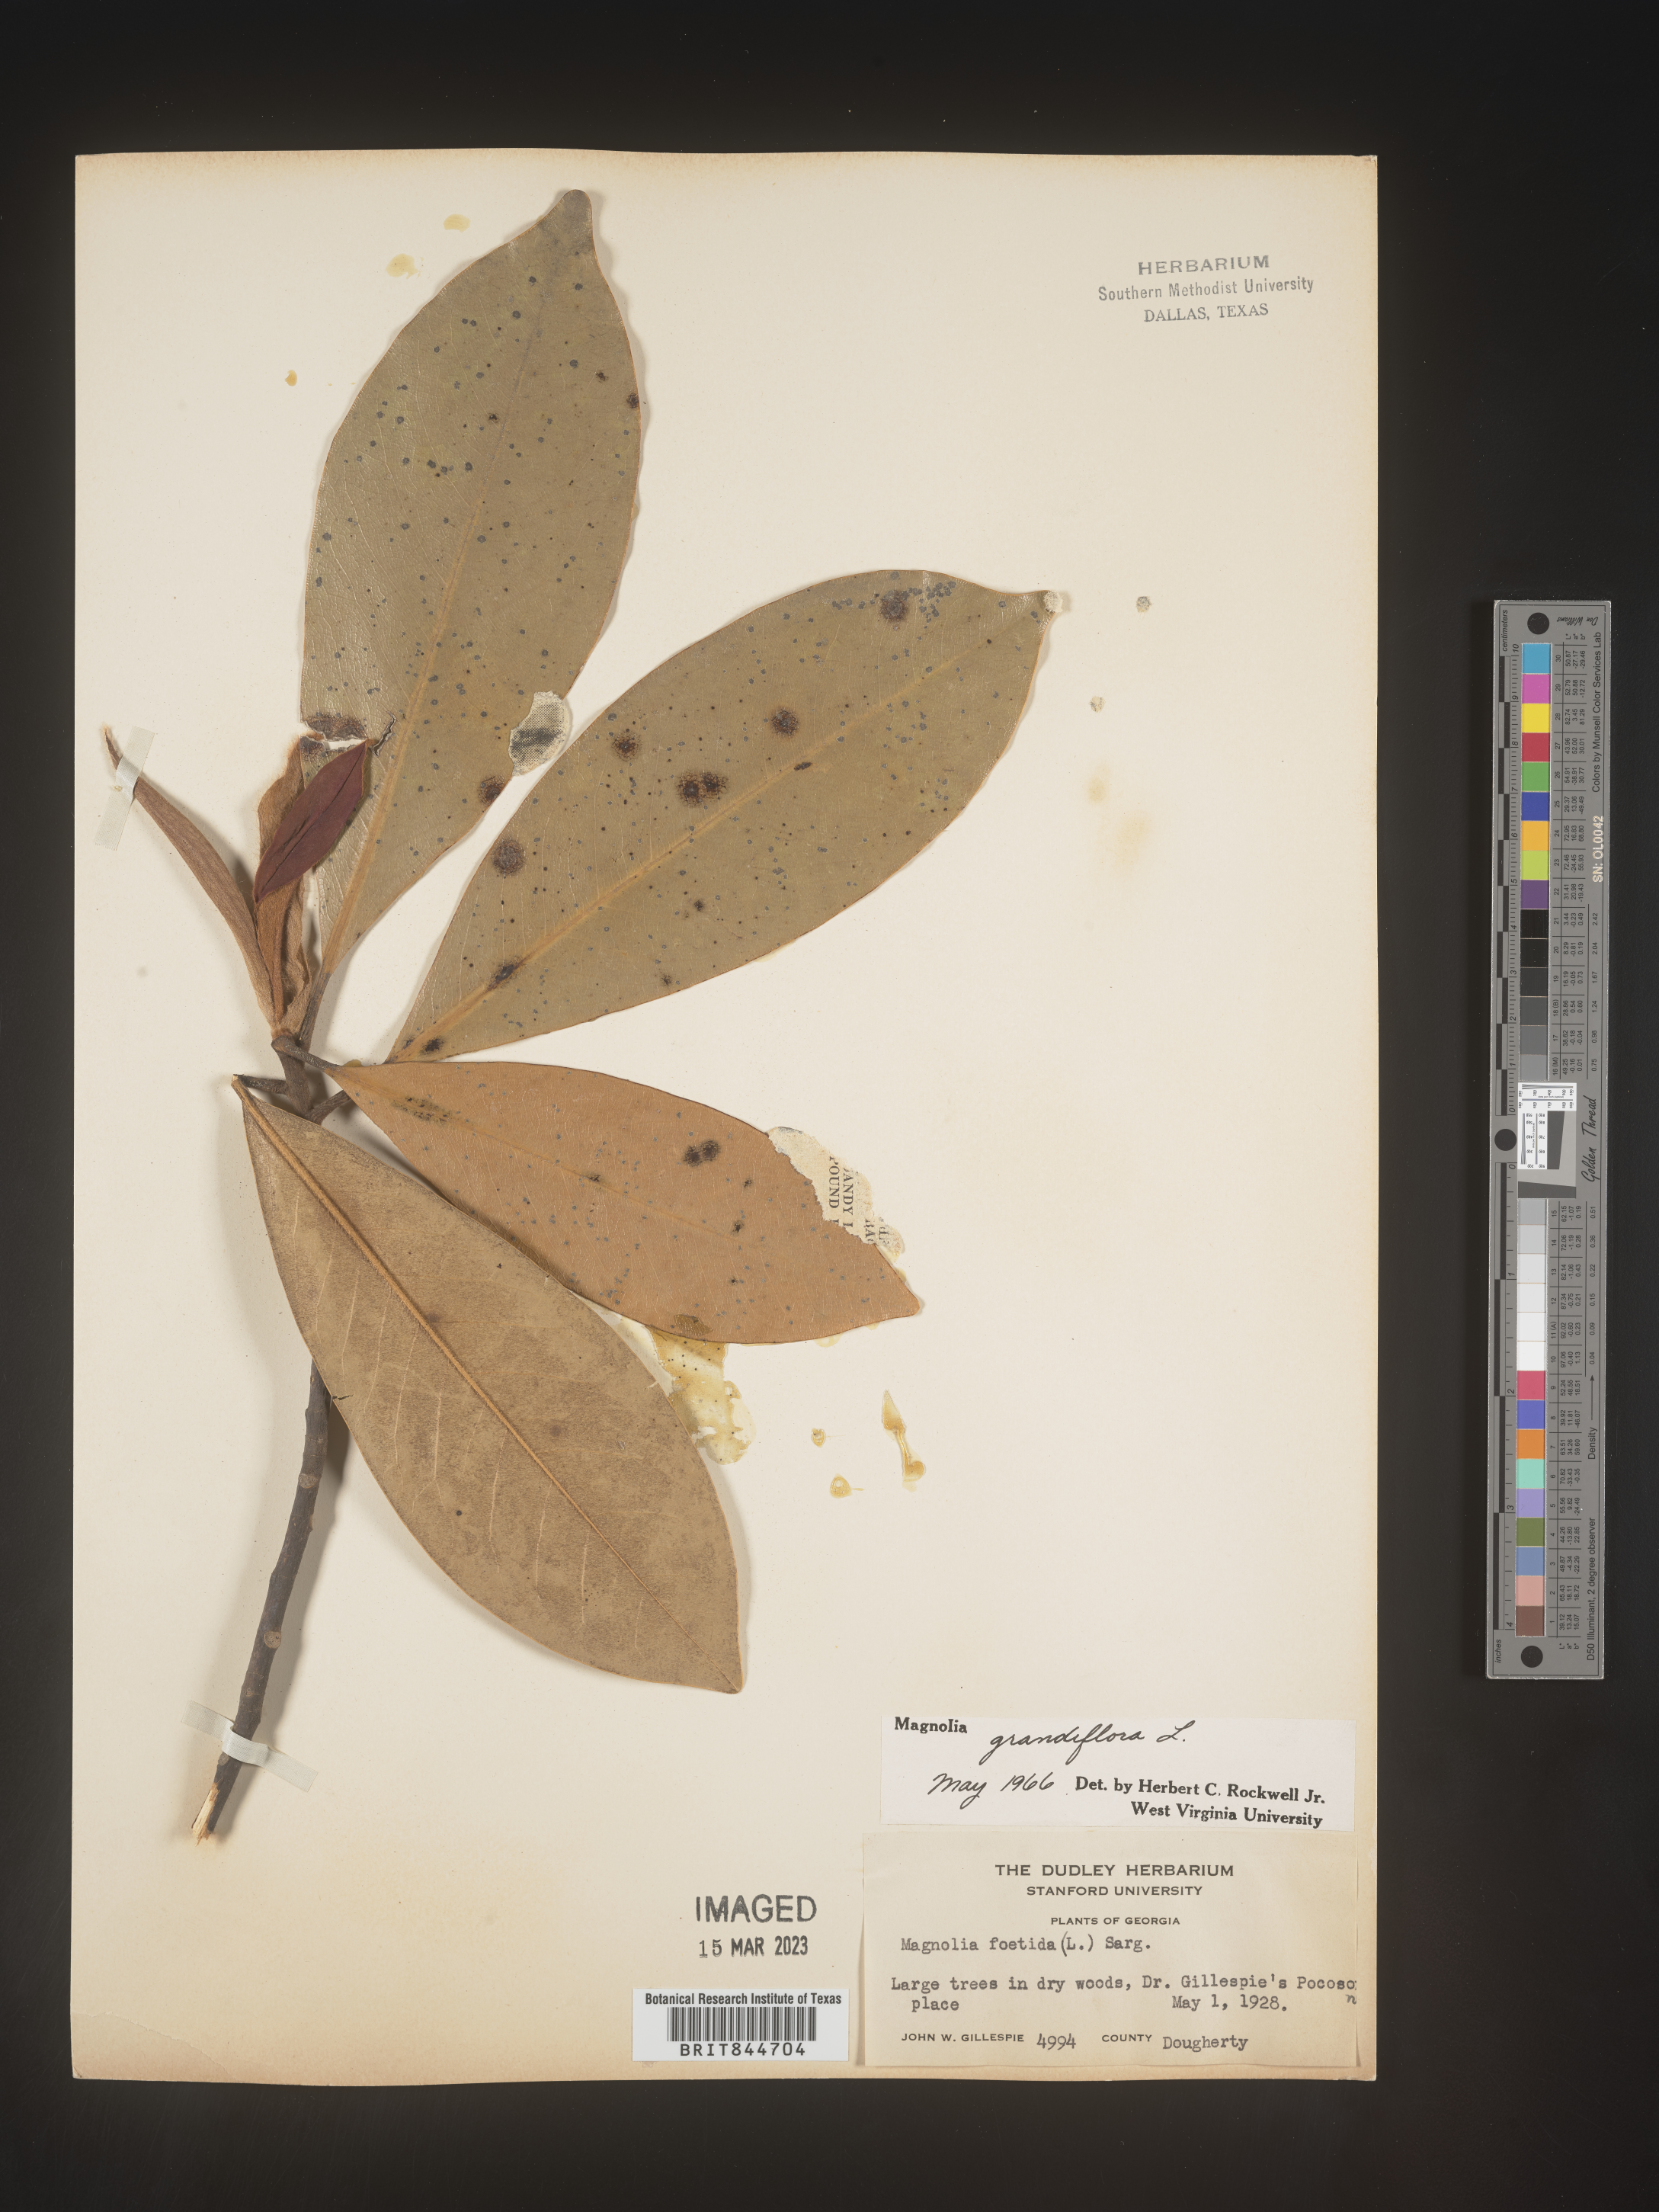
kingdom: Plantae
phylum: Tracheophyta
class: Magnoliopsida
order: Magnoliales
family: Magnoliaceae
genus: Magnolia
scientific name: Magnolia grandiflora
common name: Southern magnolia
